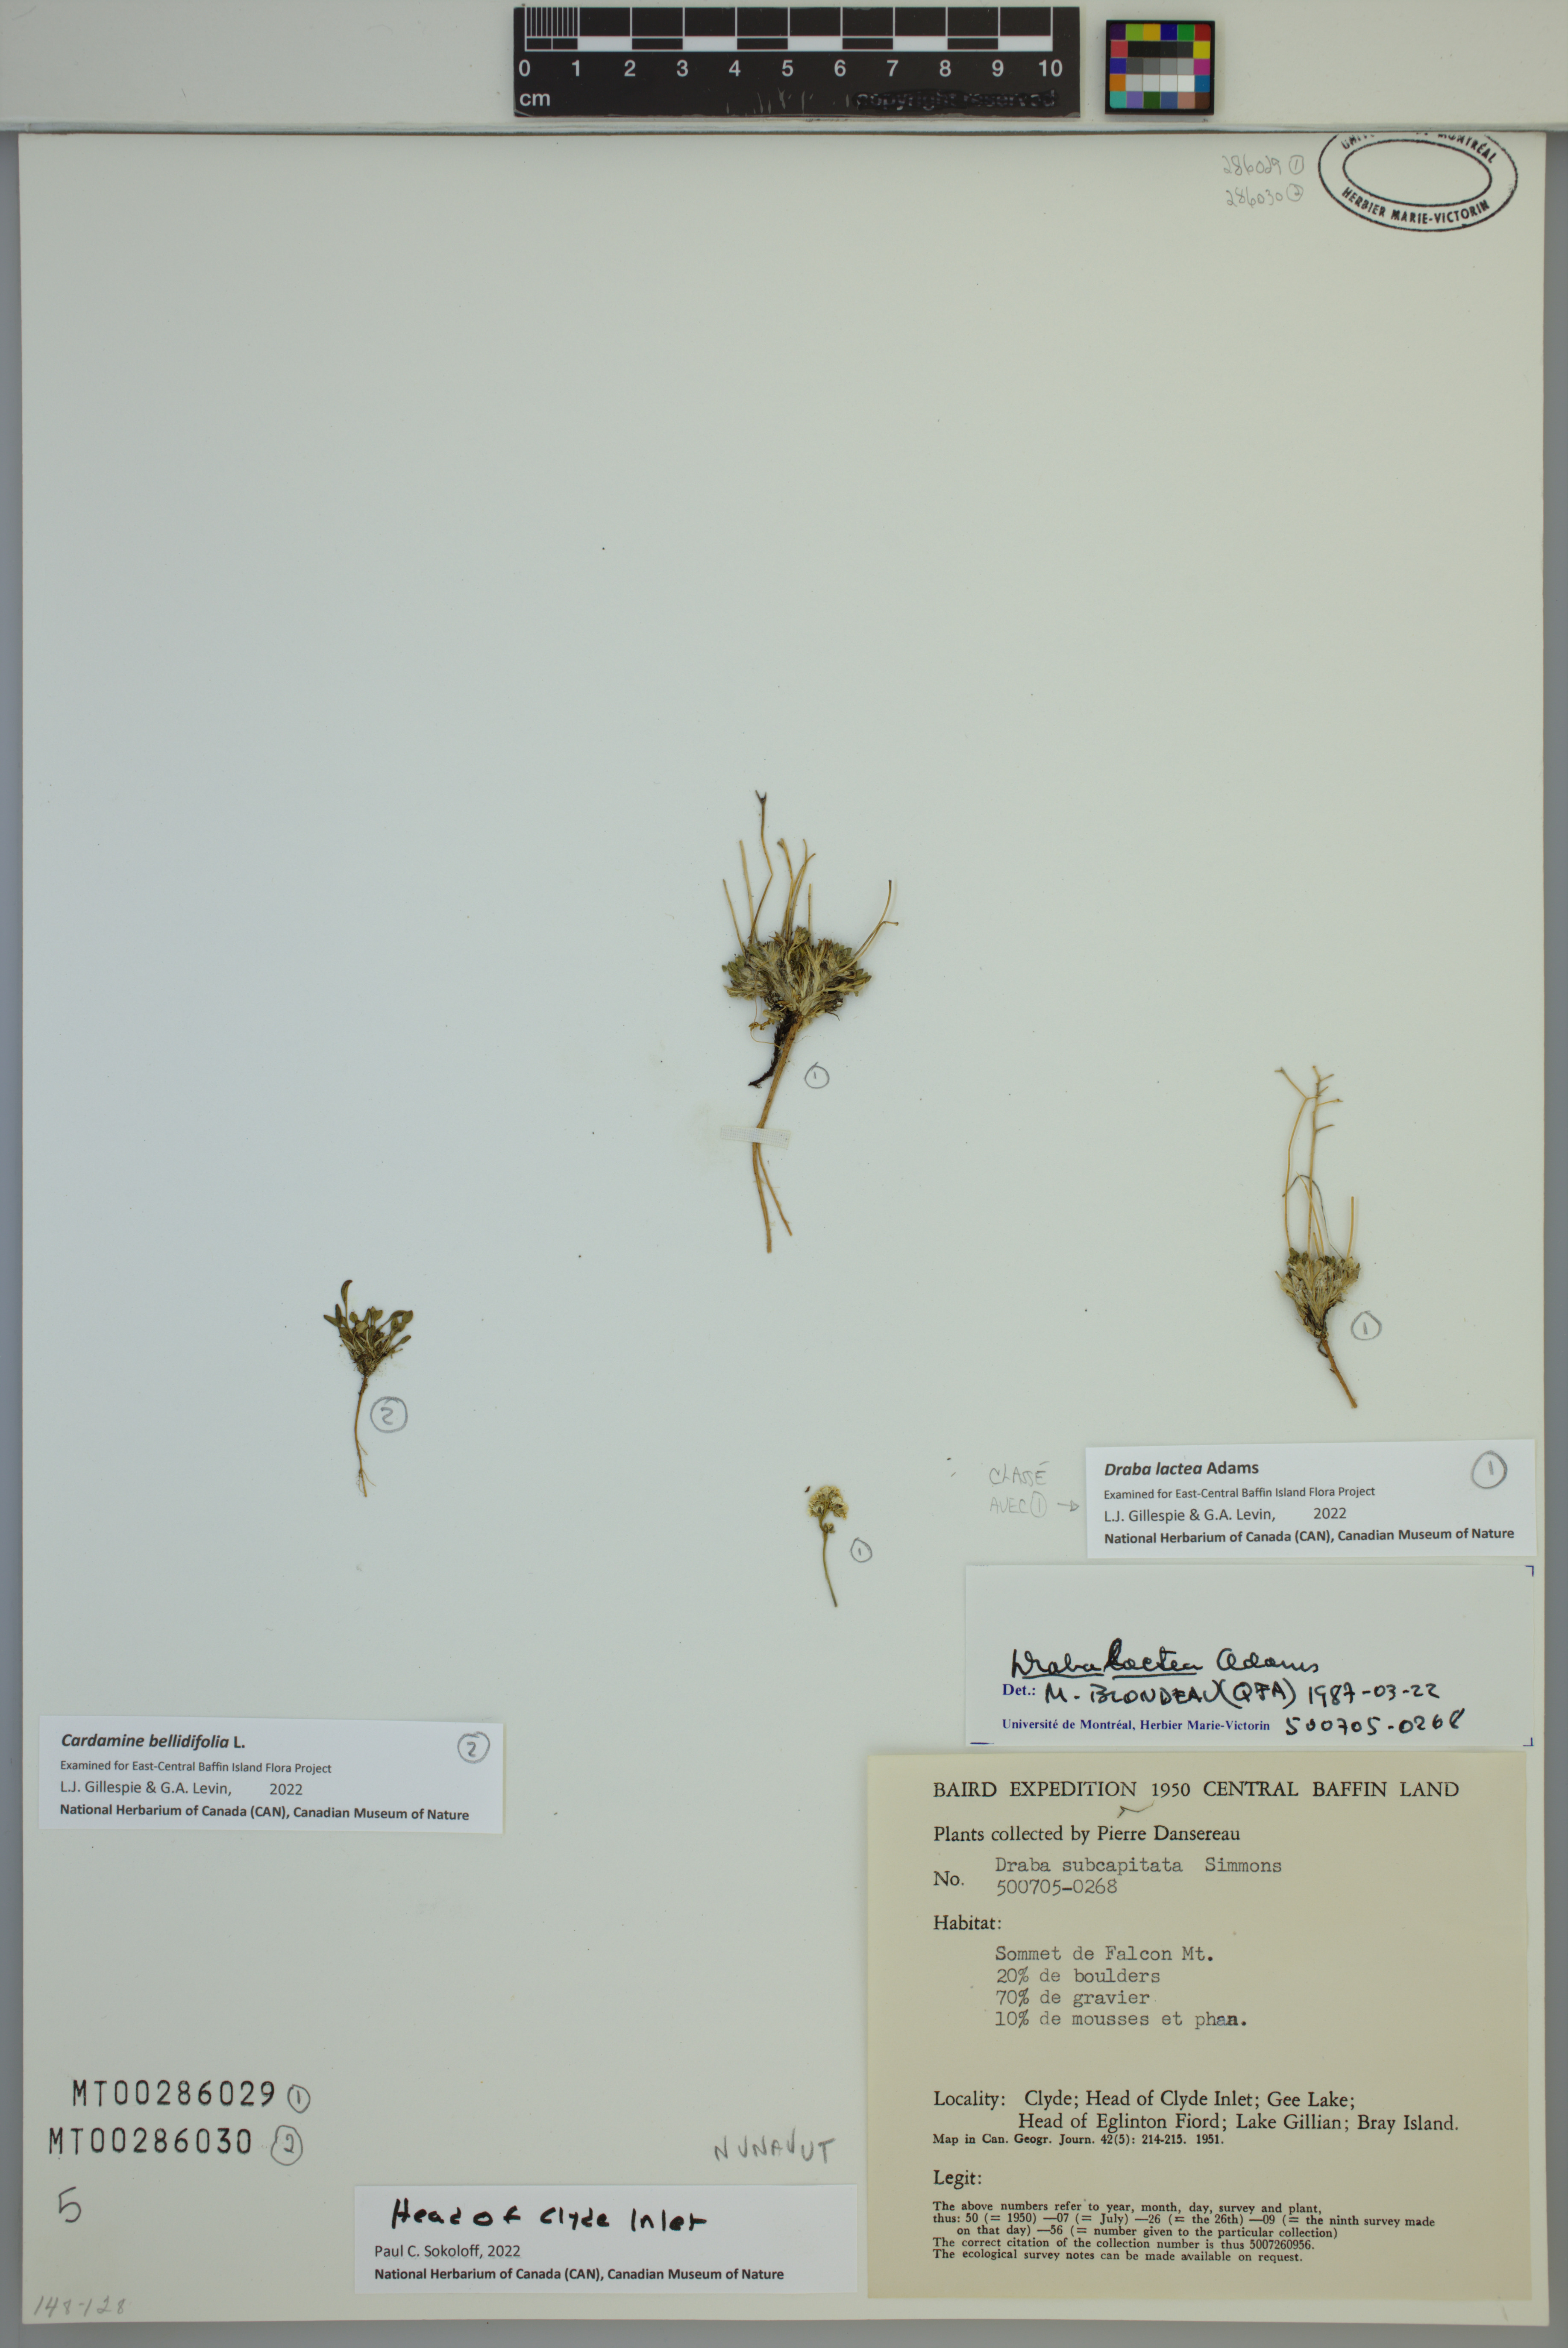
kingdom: Plantae
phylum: Tracheophyta
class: Magnoliopsida
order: Brassicales
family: Brassicaceae
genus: Draba
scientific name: Draba lactea
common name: Milky draba
